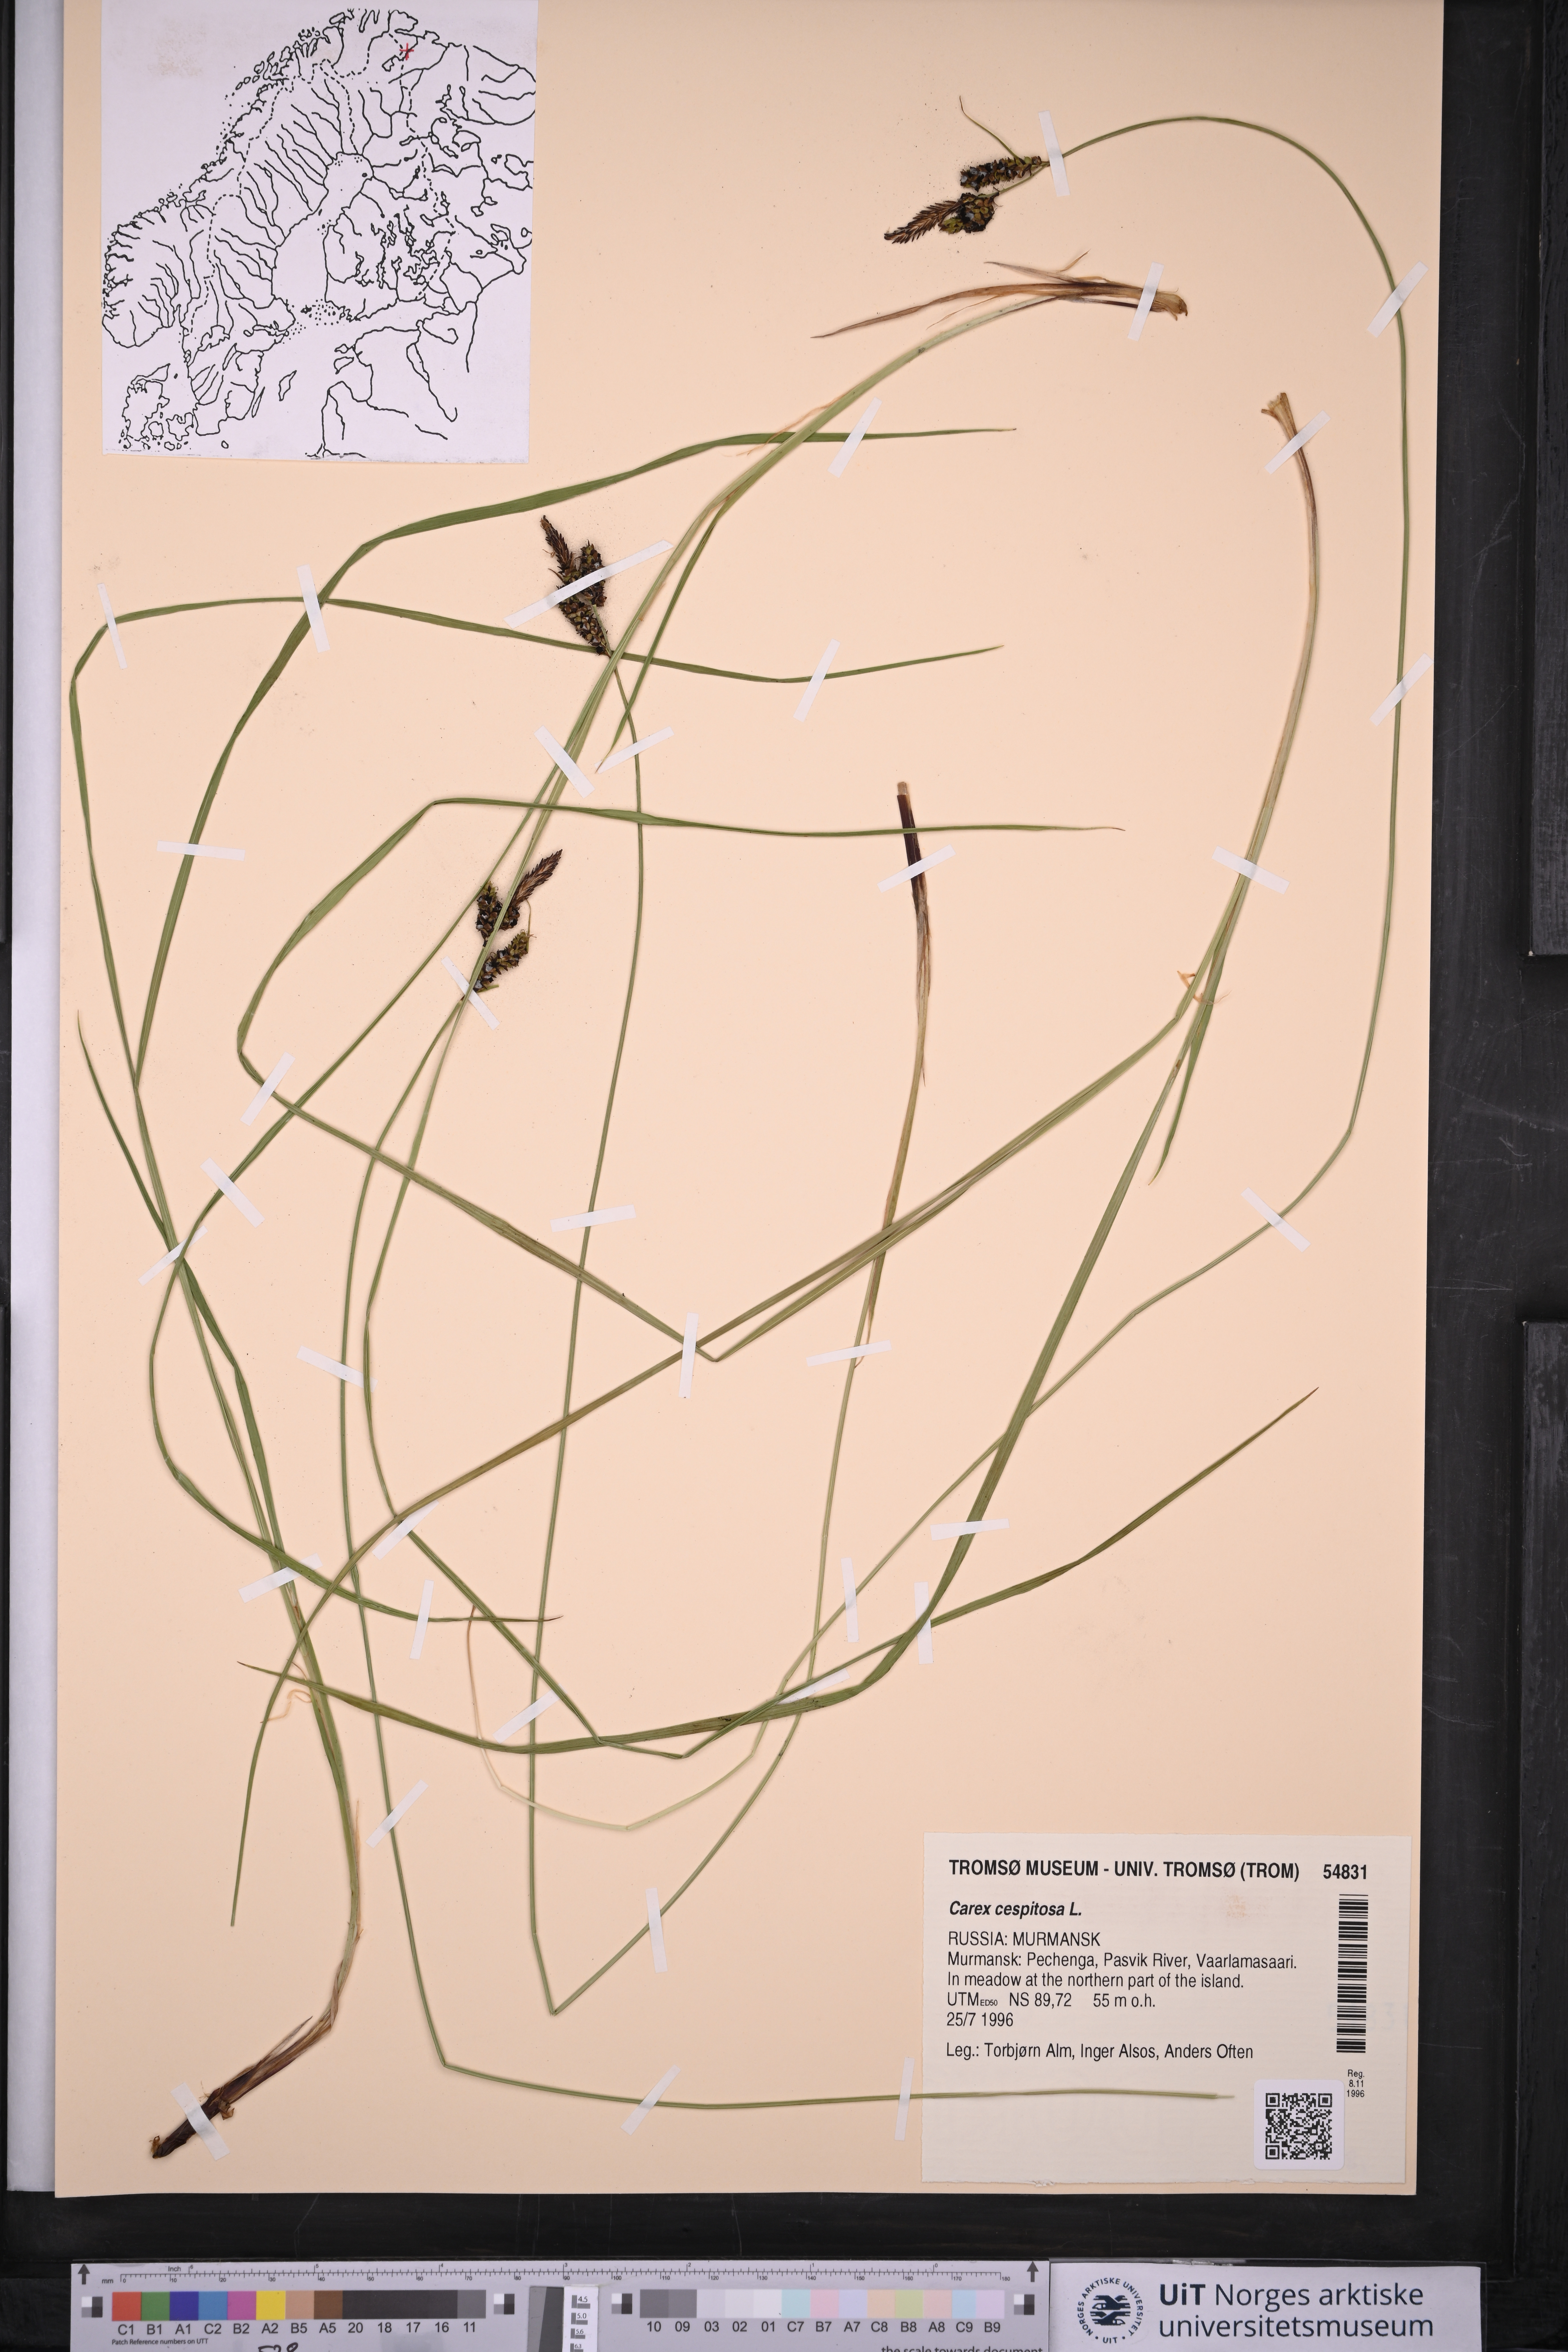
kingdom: Plantae
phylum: Tracheophyta
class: Liliopsida
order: Poales
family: Cyperaceae
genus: Carex
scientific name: Carex cespitosa
